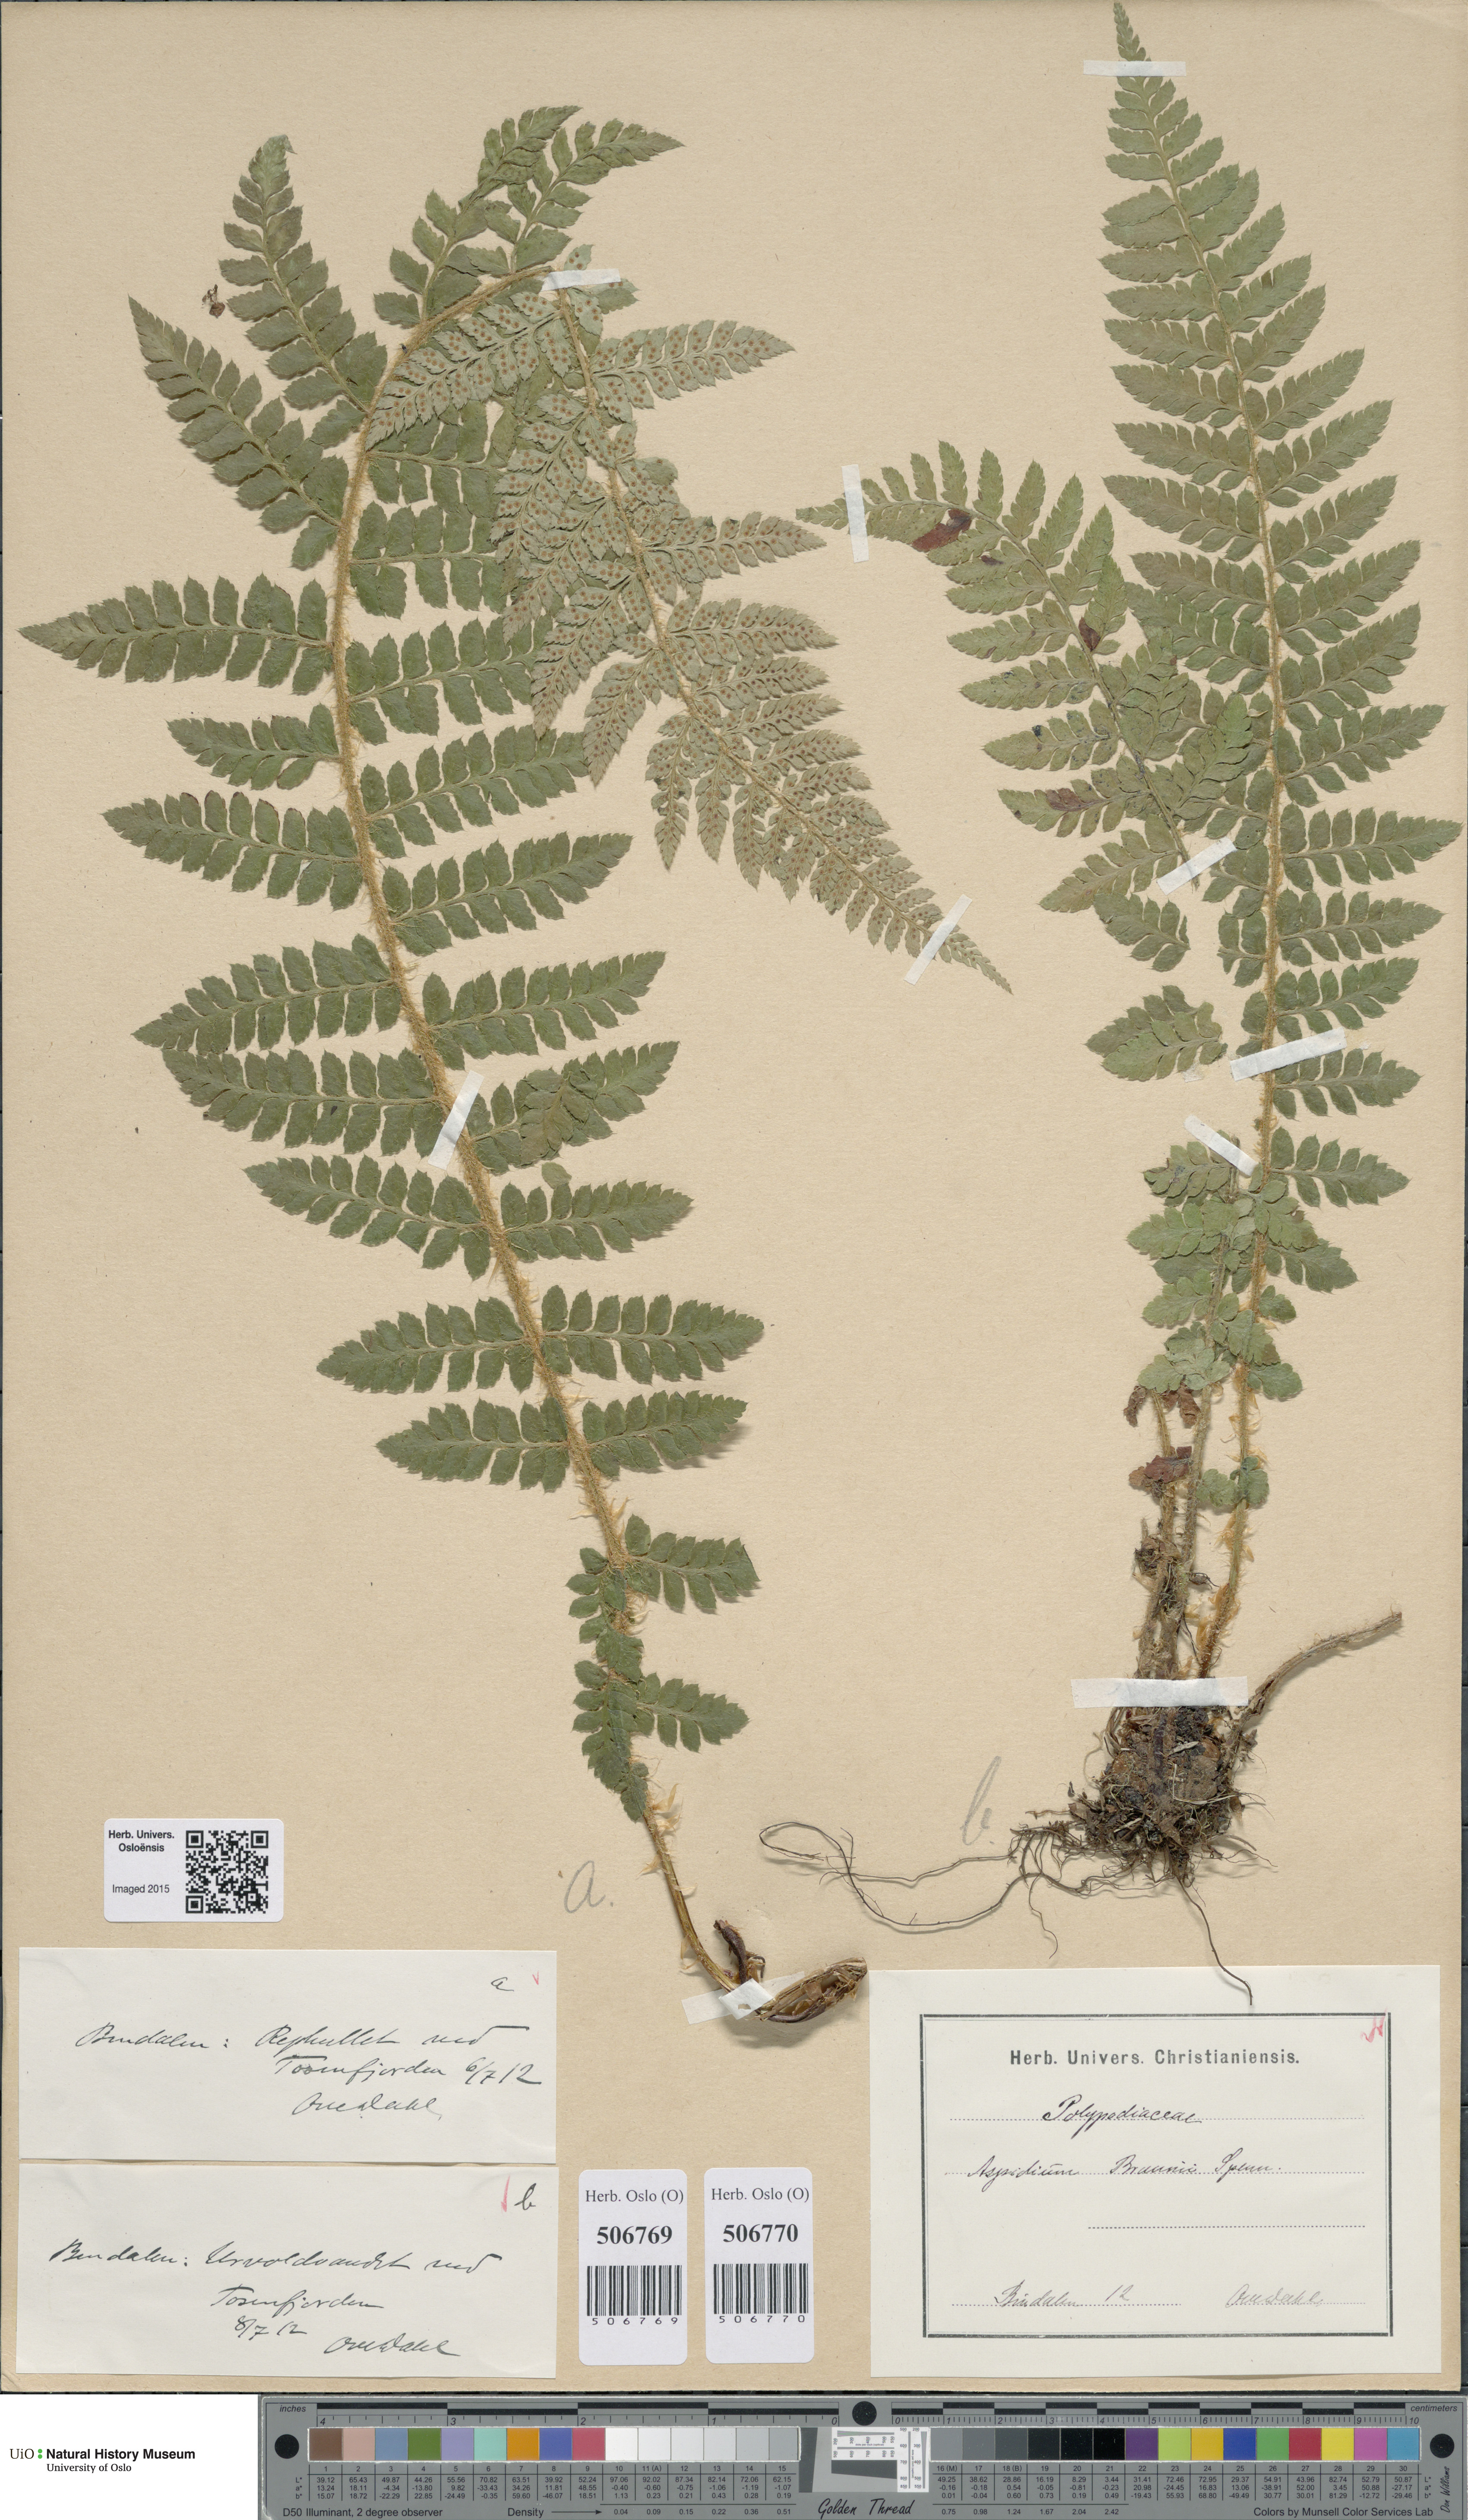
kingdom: Plantae
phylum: Tracheophyta
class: Polypodiopsida
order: Polypodiales
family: Dryopteridaceae
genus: Polystichum
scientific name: Polystichum braunii
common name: Braun's holly fern
